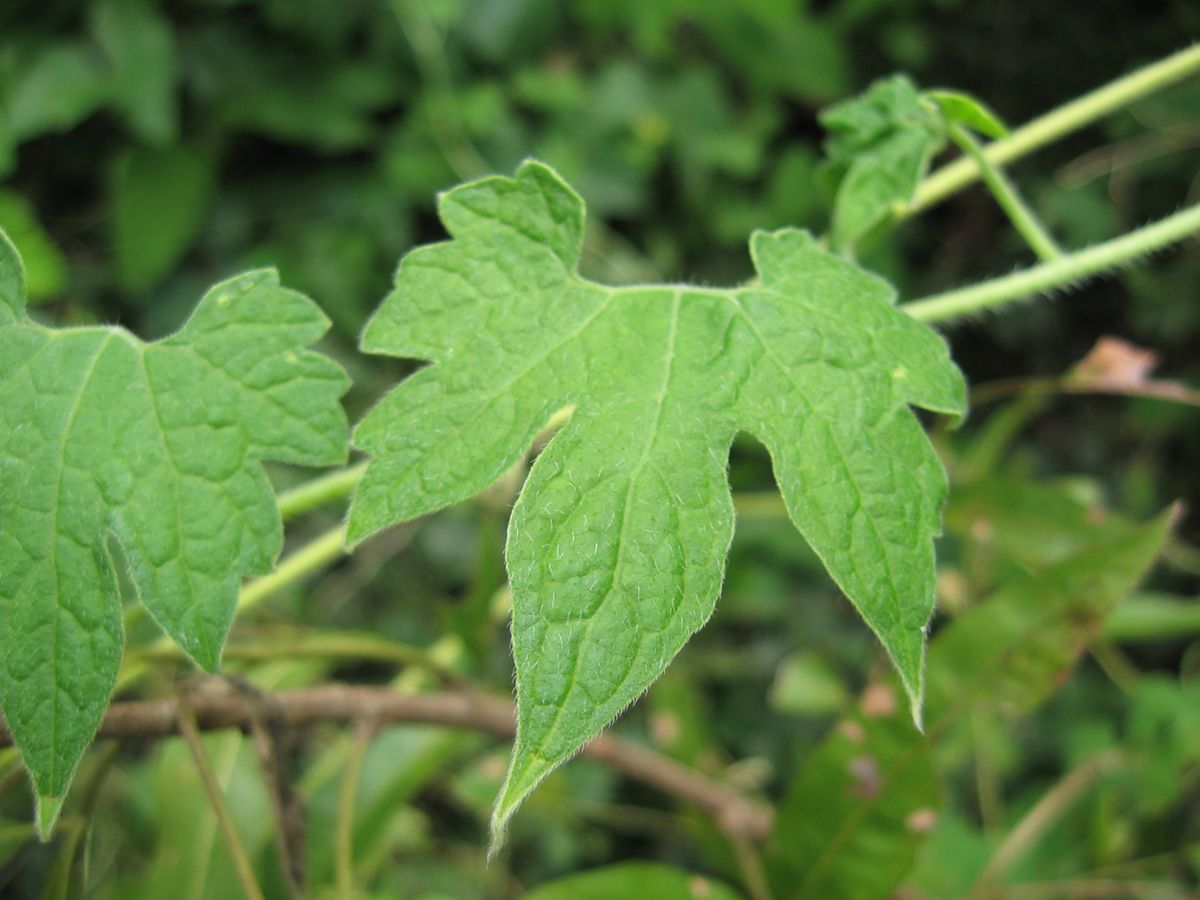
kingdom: Plantae
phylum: Tracheophyta
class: Magnoliopsida
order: Cornales
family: Loasaceae
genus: Gronovia
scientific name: Gronovia scandens
